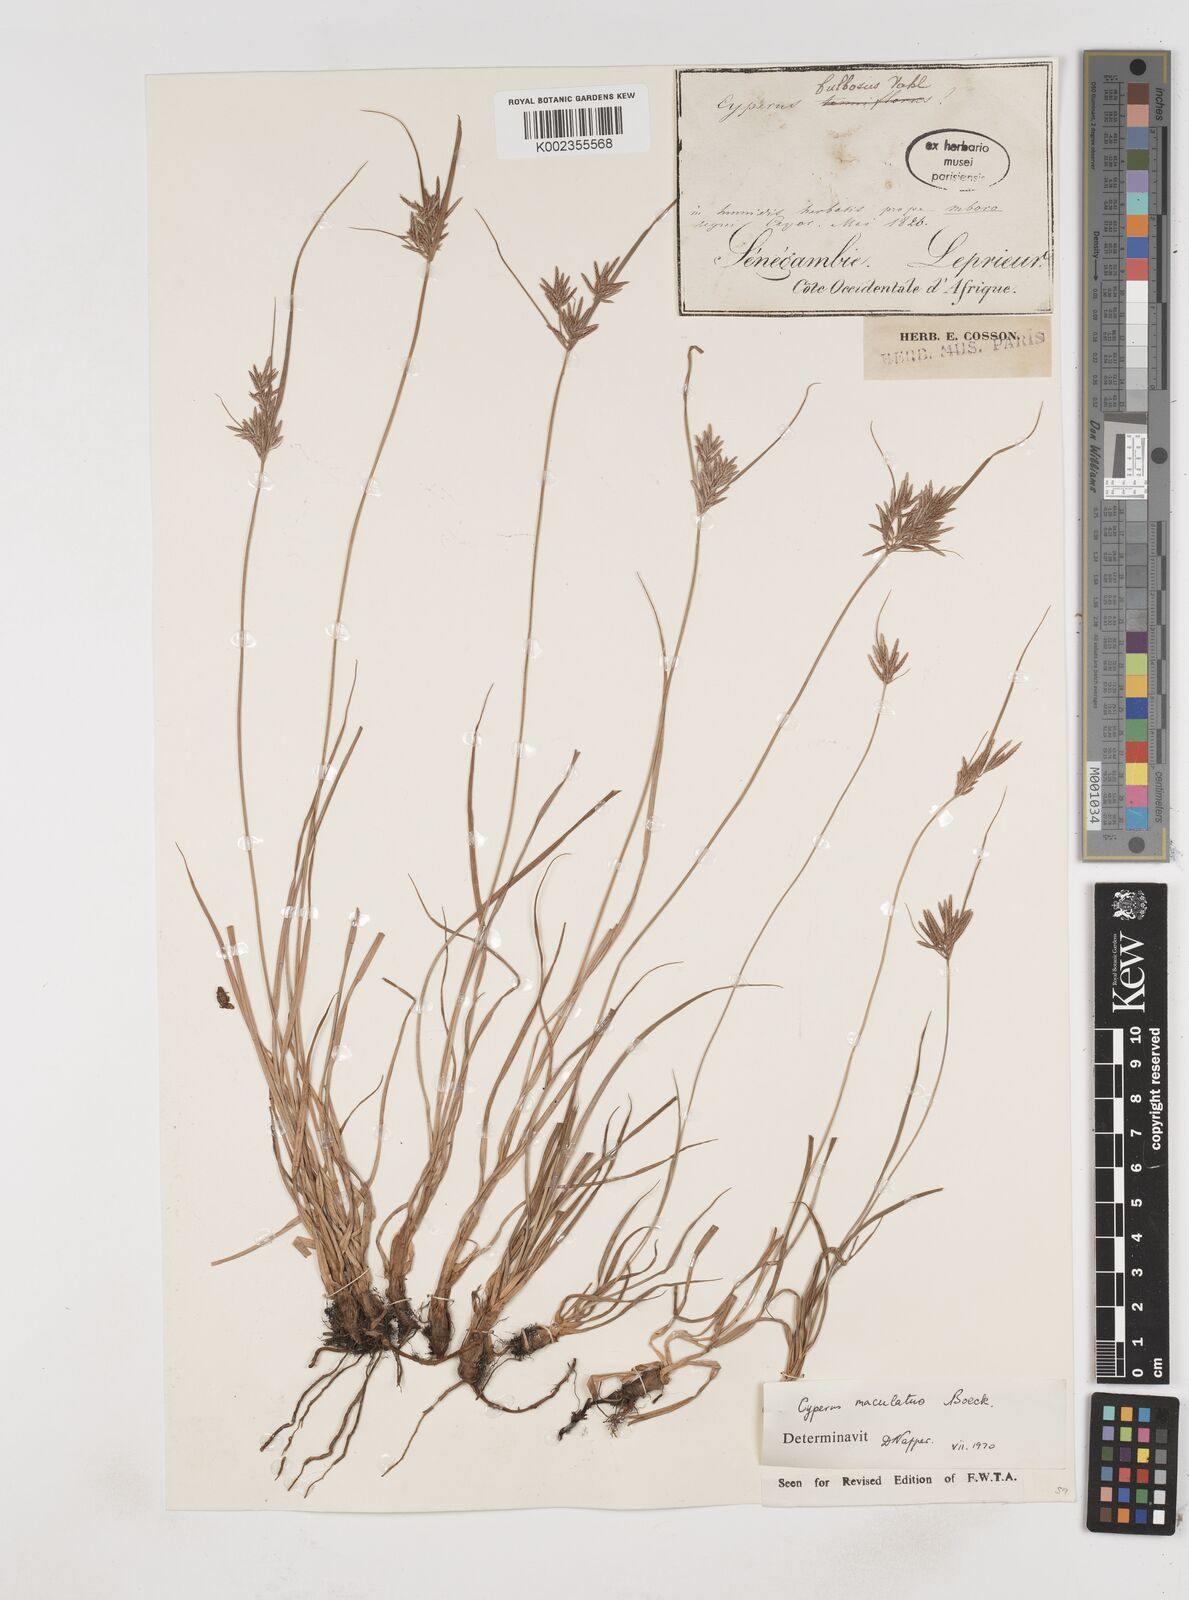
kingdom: Plantae
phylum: Tracheophyta
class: Liliopsida
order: Poales
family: Cyperaceae
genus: Cyperus
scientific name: Cyperus maculatus
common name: Maculated sedge
